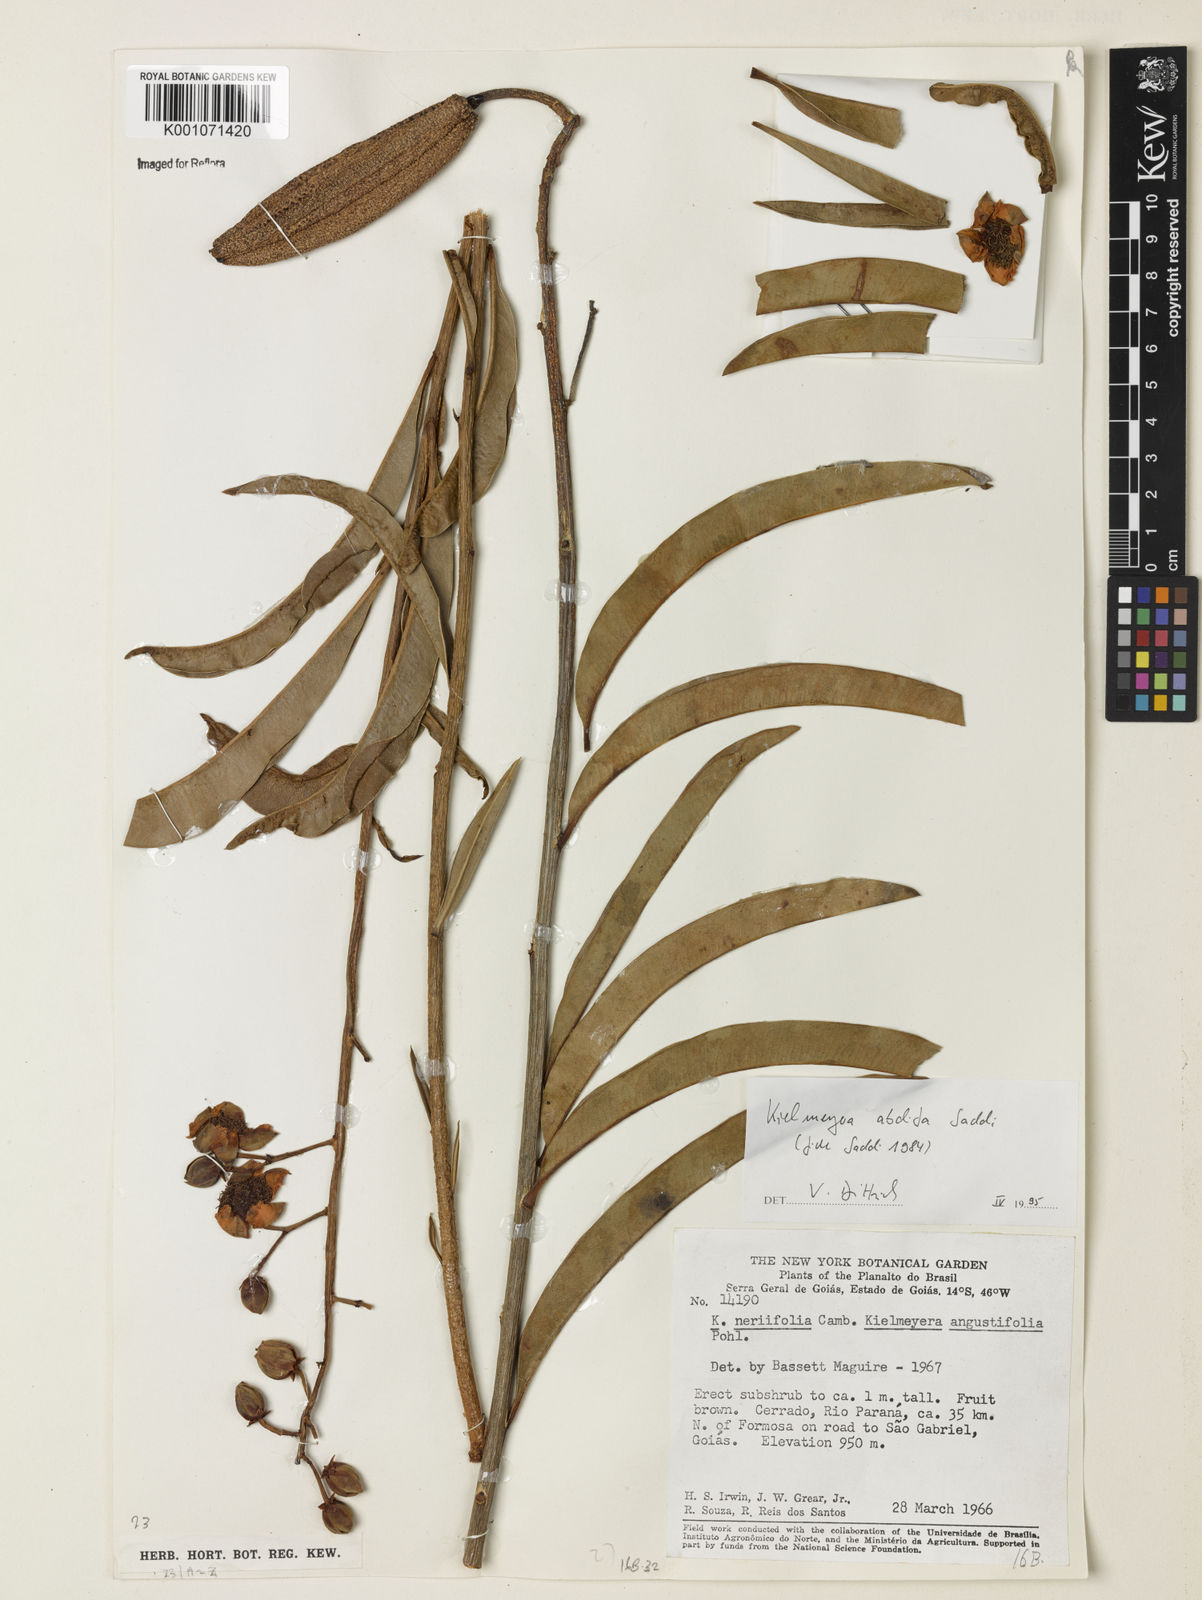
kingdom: Plantae
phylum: Tracheophyta
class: Magnoliopsida
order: Malpighiales
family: Calophyllaceae
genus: Kielmeyera
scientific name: Kielmeyera abdita
